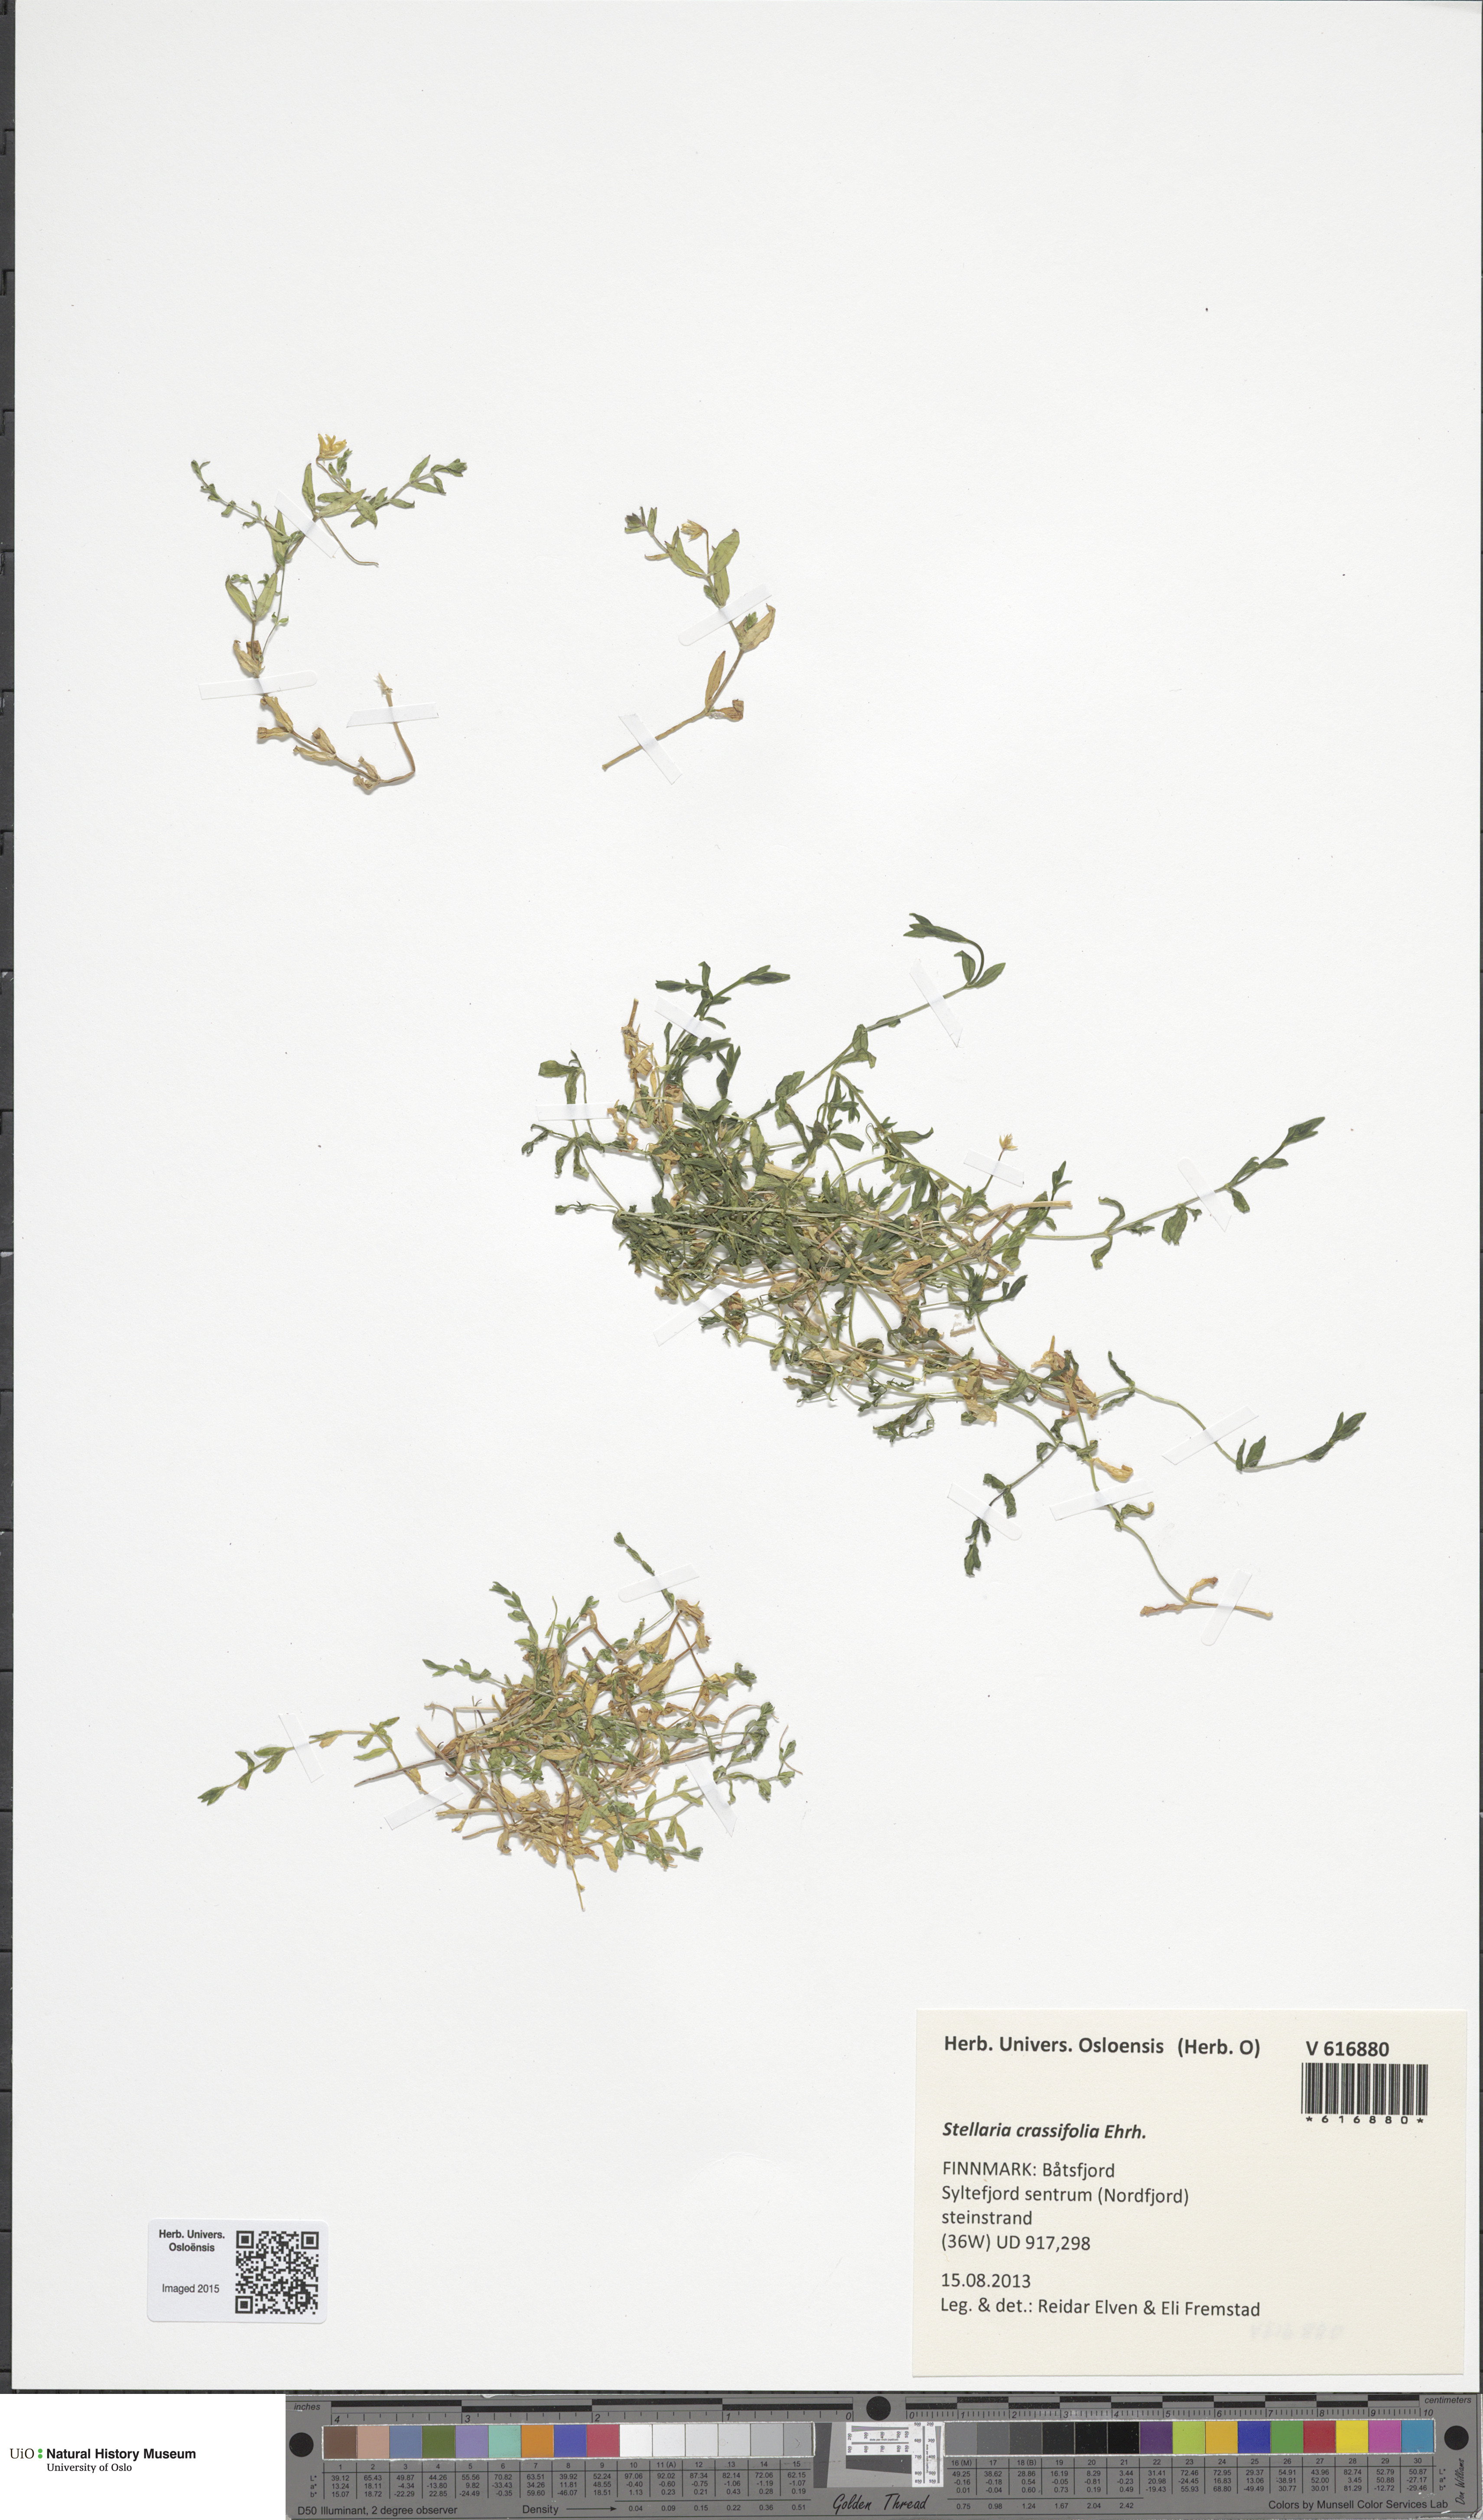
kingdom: Plantae
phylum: Tracheophyta
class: Magnoliopsida
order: Caryophyllales
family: Caryophyllaceae
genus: Stellaria
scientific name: Stellaria crassifolia
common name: Fleshy starwort
